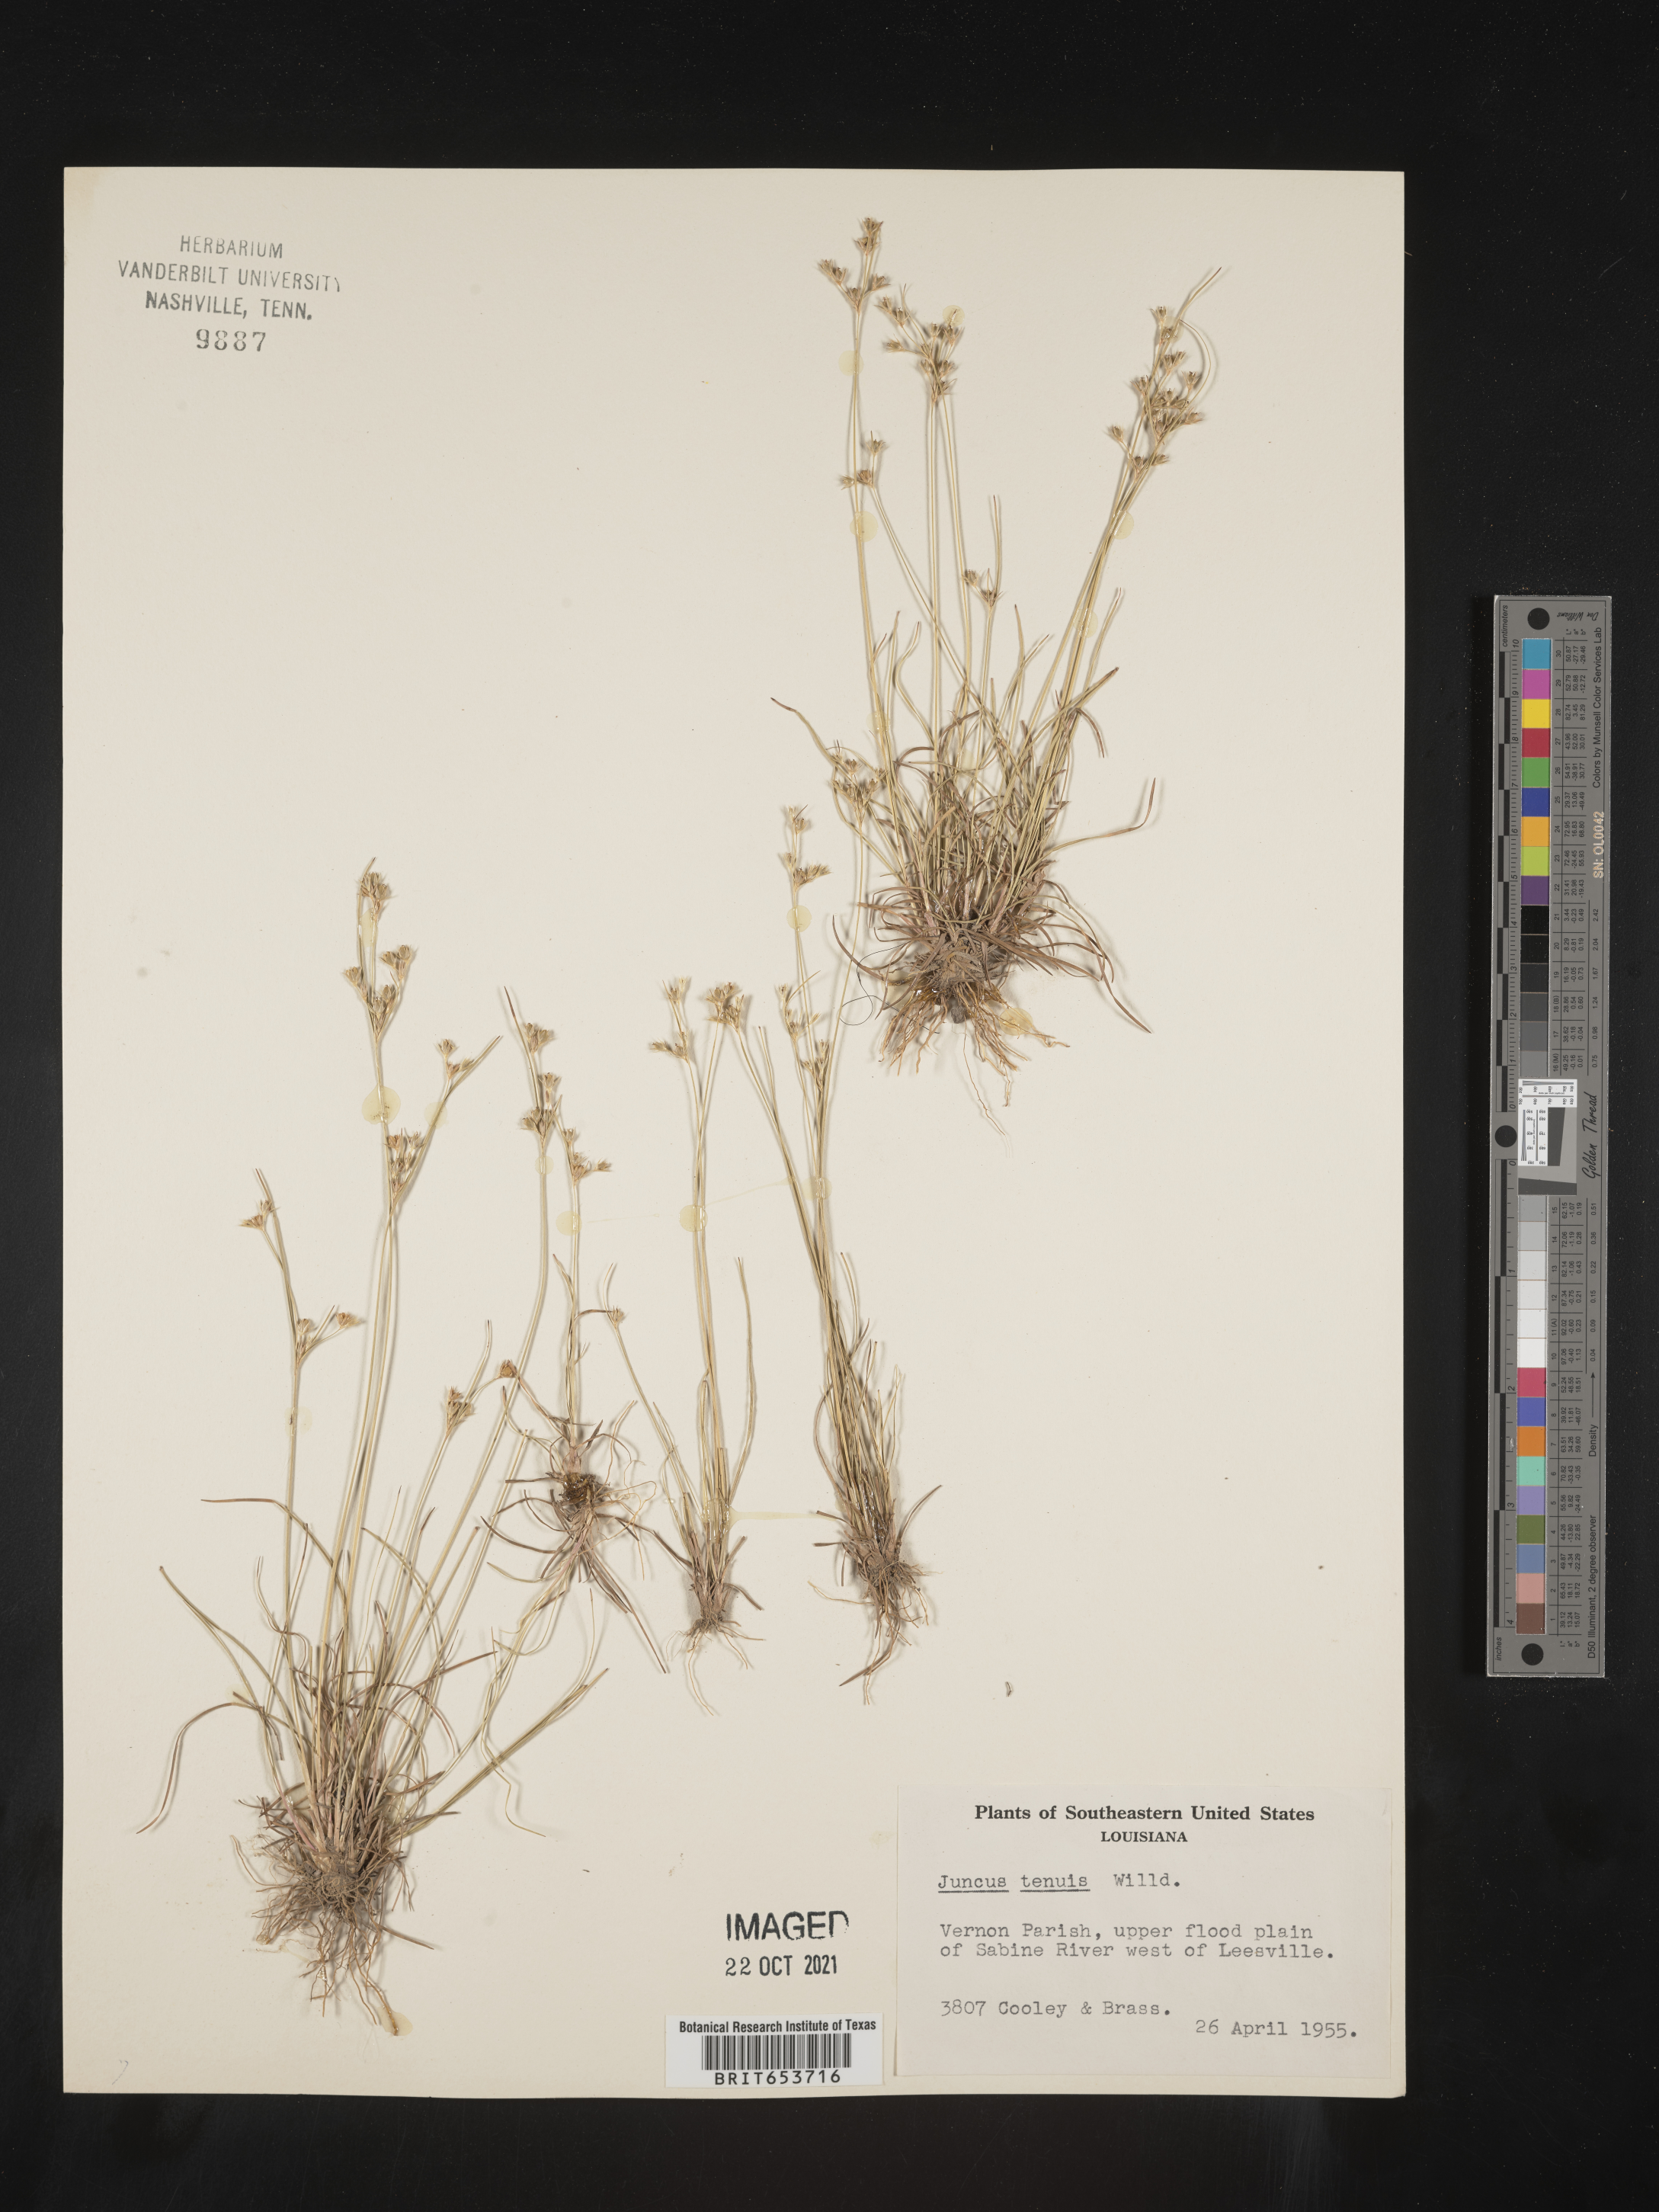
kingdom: Plantae
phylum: Tracheophyta
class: Liliopsida
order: Poales
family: Juncaceae
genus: Juncus
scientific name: Juncus tenuis
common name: Slender rush
